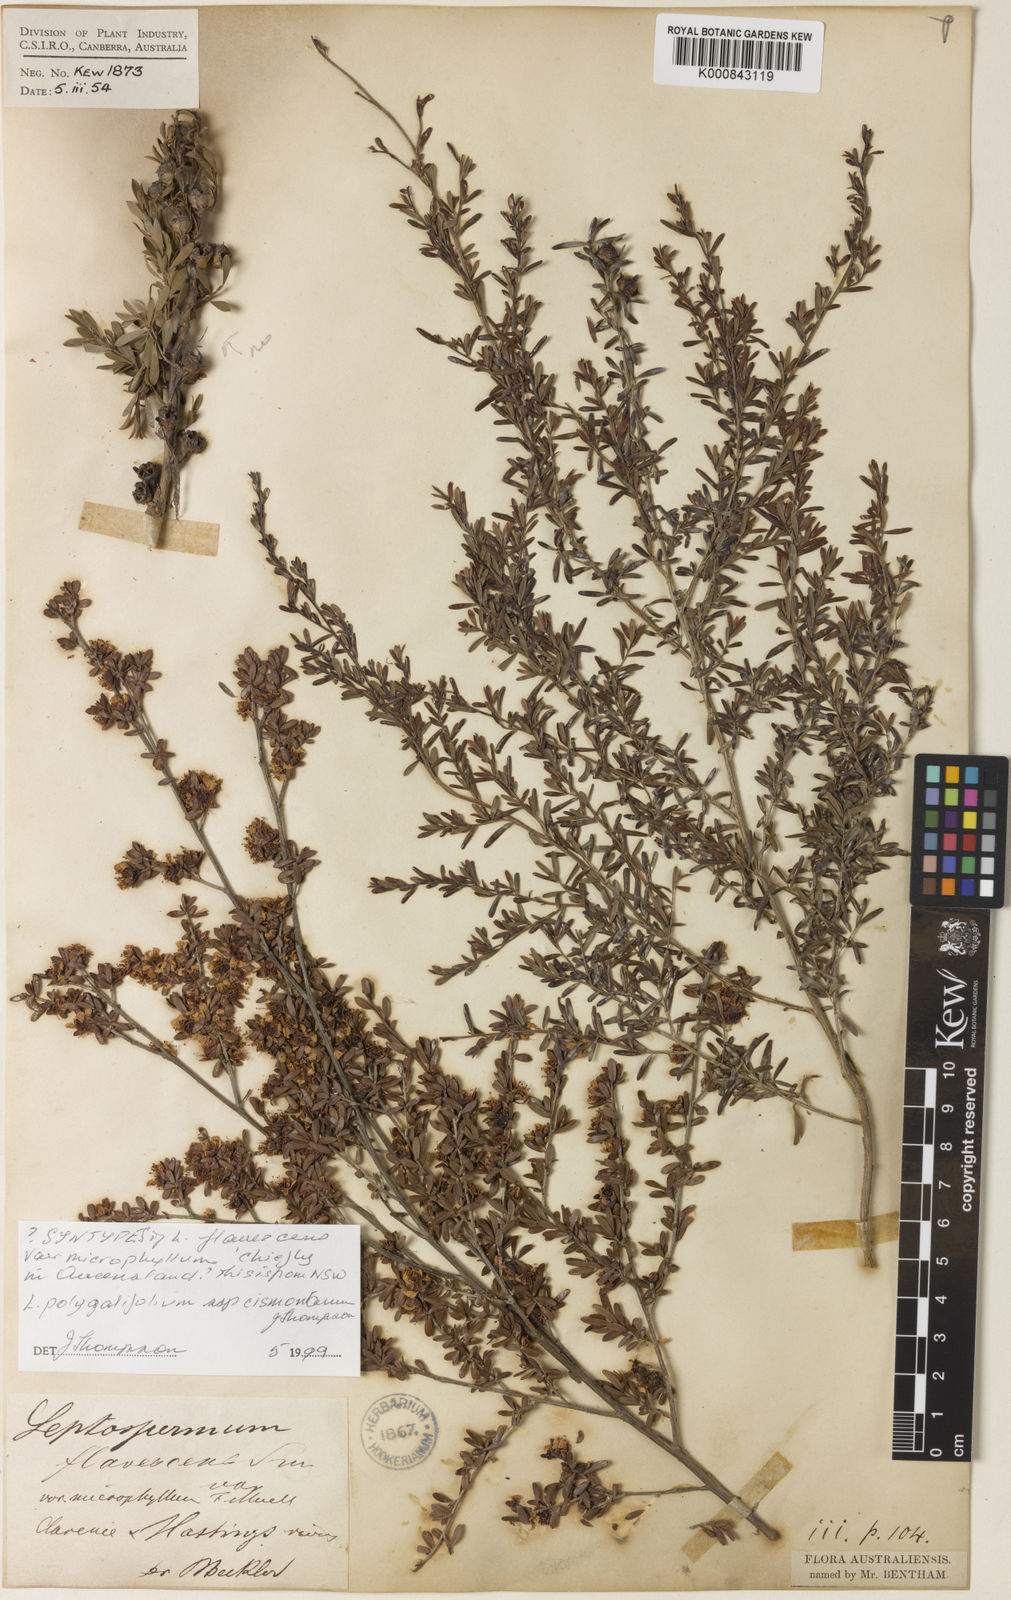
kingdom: Plantae
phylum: Tracheophyta
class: Magnoliopsida
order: Myrtales
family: Myrtaceae
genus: Leptospermum
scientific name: Leptospermum polygalifolium
